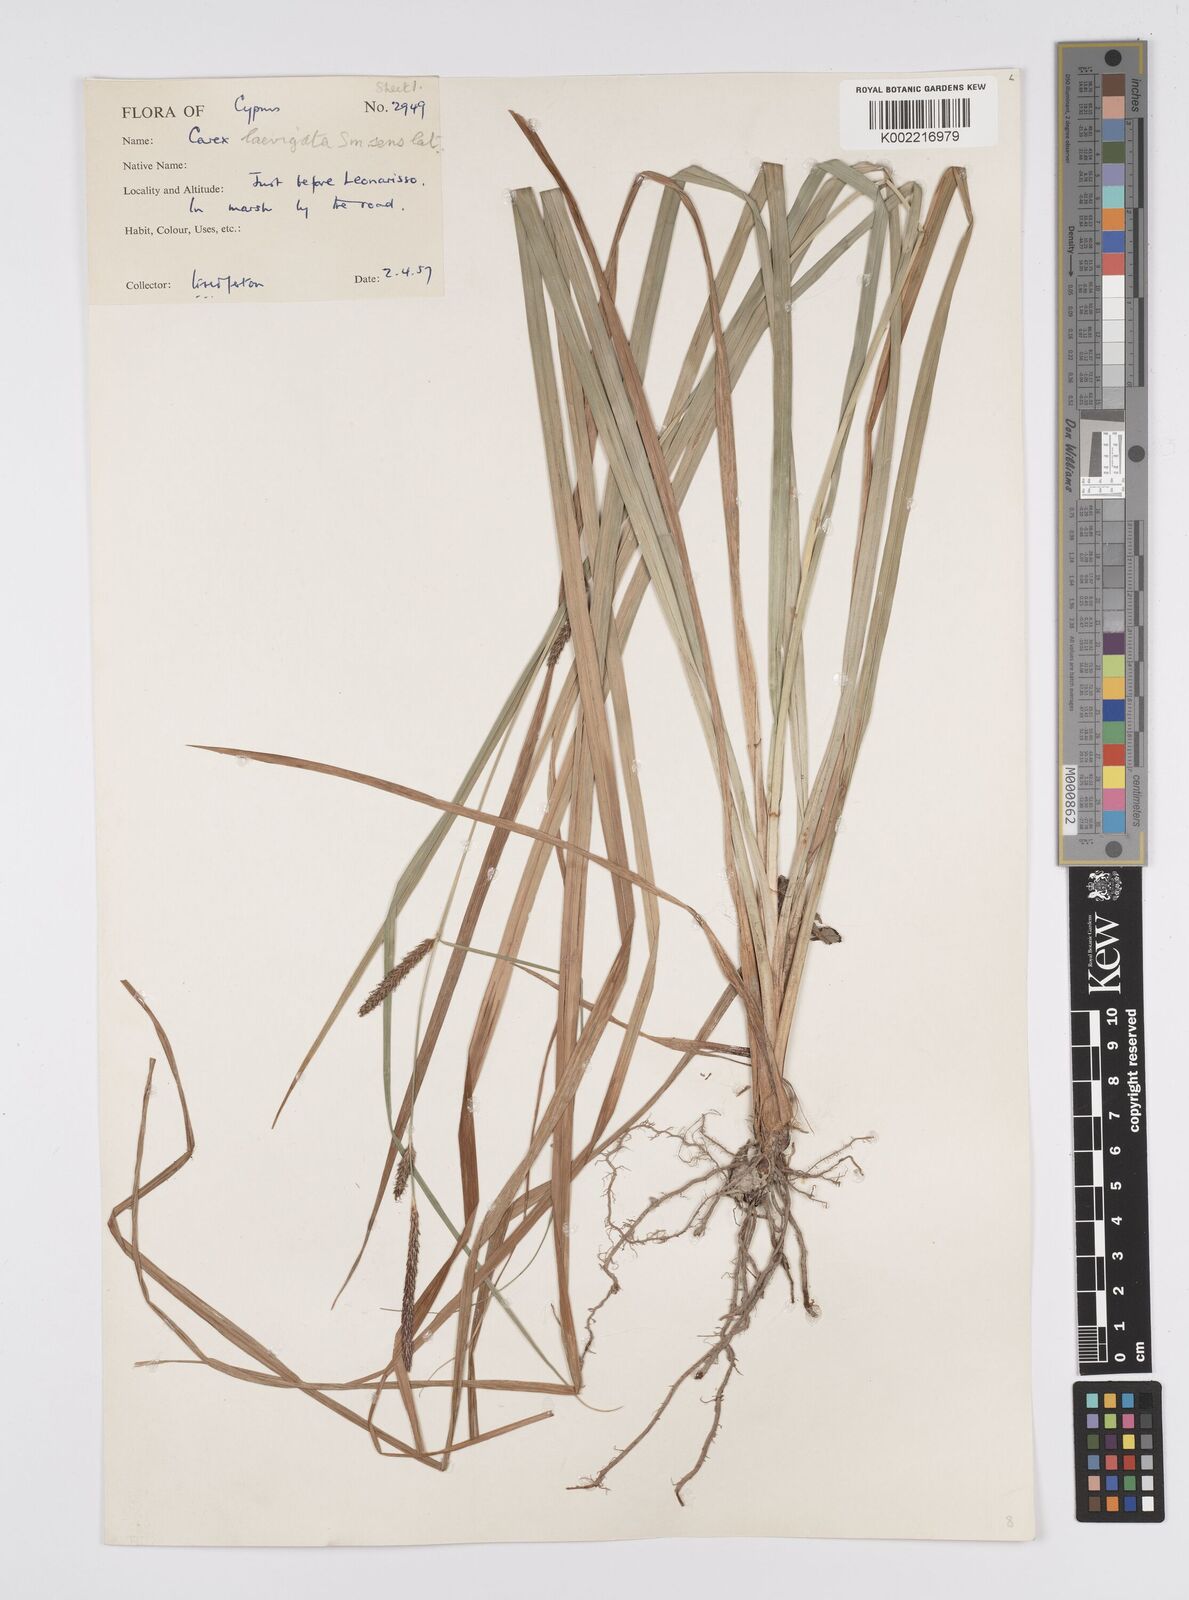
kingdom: Plantae
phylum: Tracheophyta
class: Liliopsida
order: Poales
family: Cyperaceae
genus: Carex
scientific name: Carex distans
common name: Distant sedge
